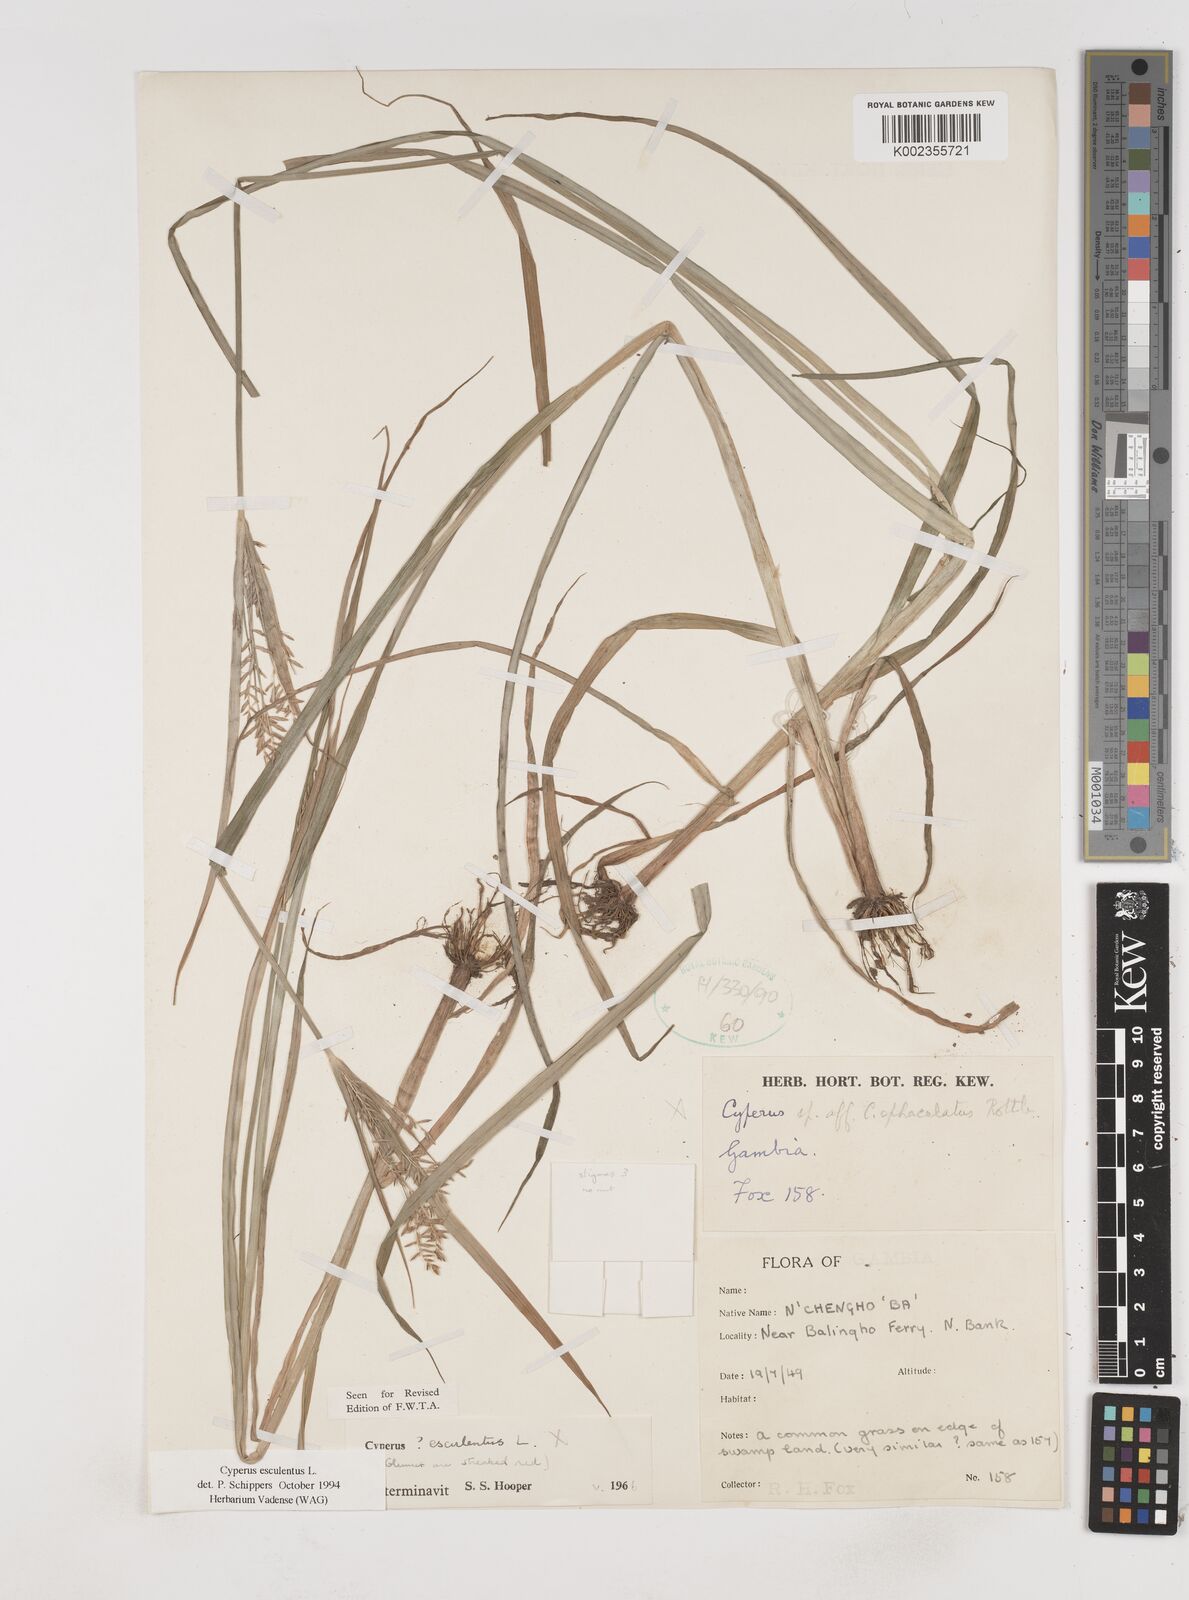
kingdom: Plantae
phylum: Tracheophyta
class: Liliopsida
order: Poales
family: Cyperaceae
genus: Cyperus
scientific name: Cyperus esculentus
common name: Yellow nutsedge
